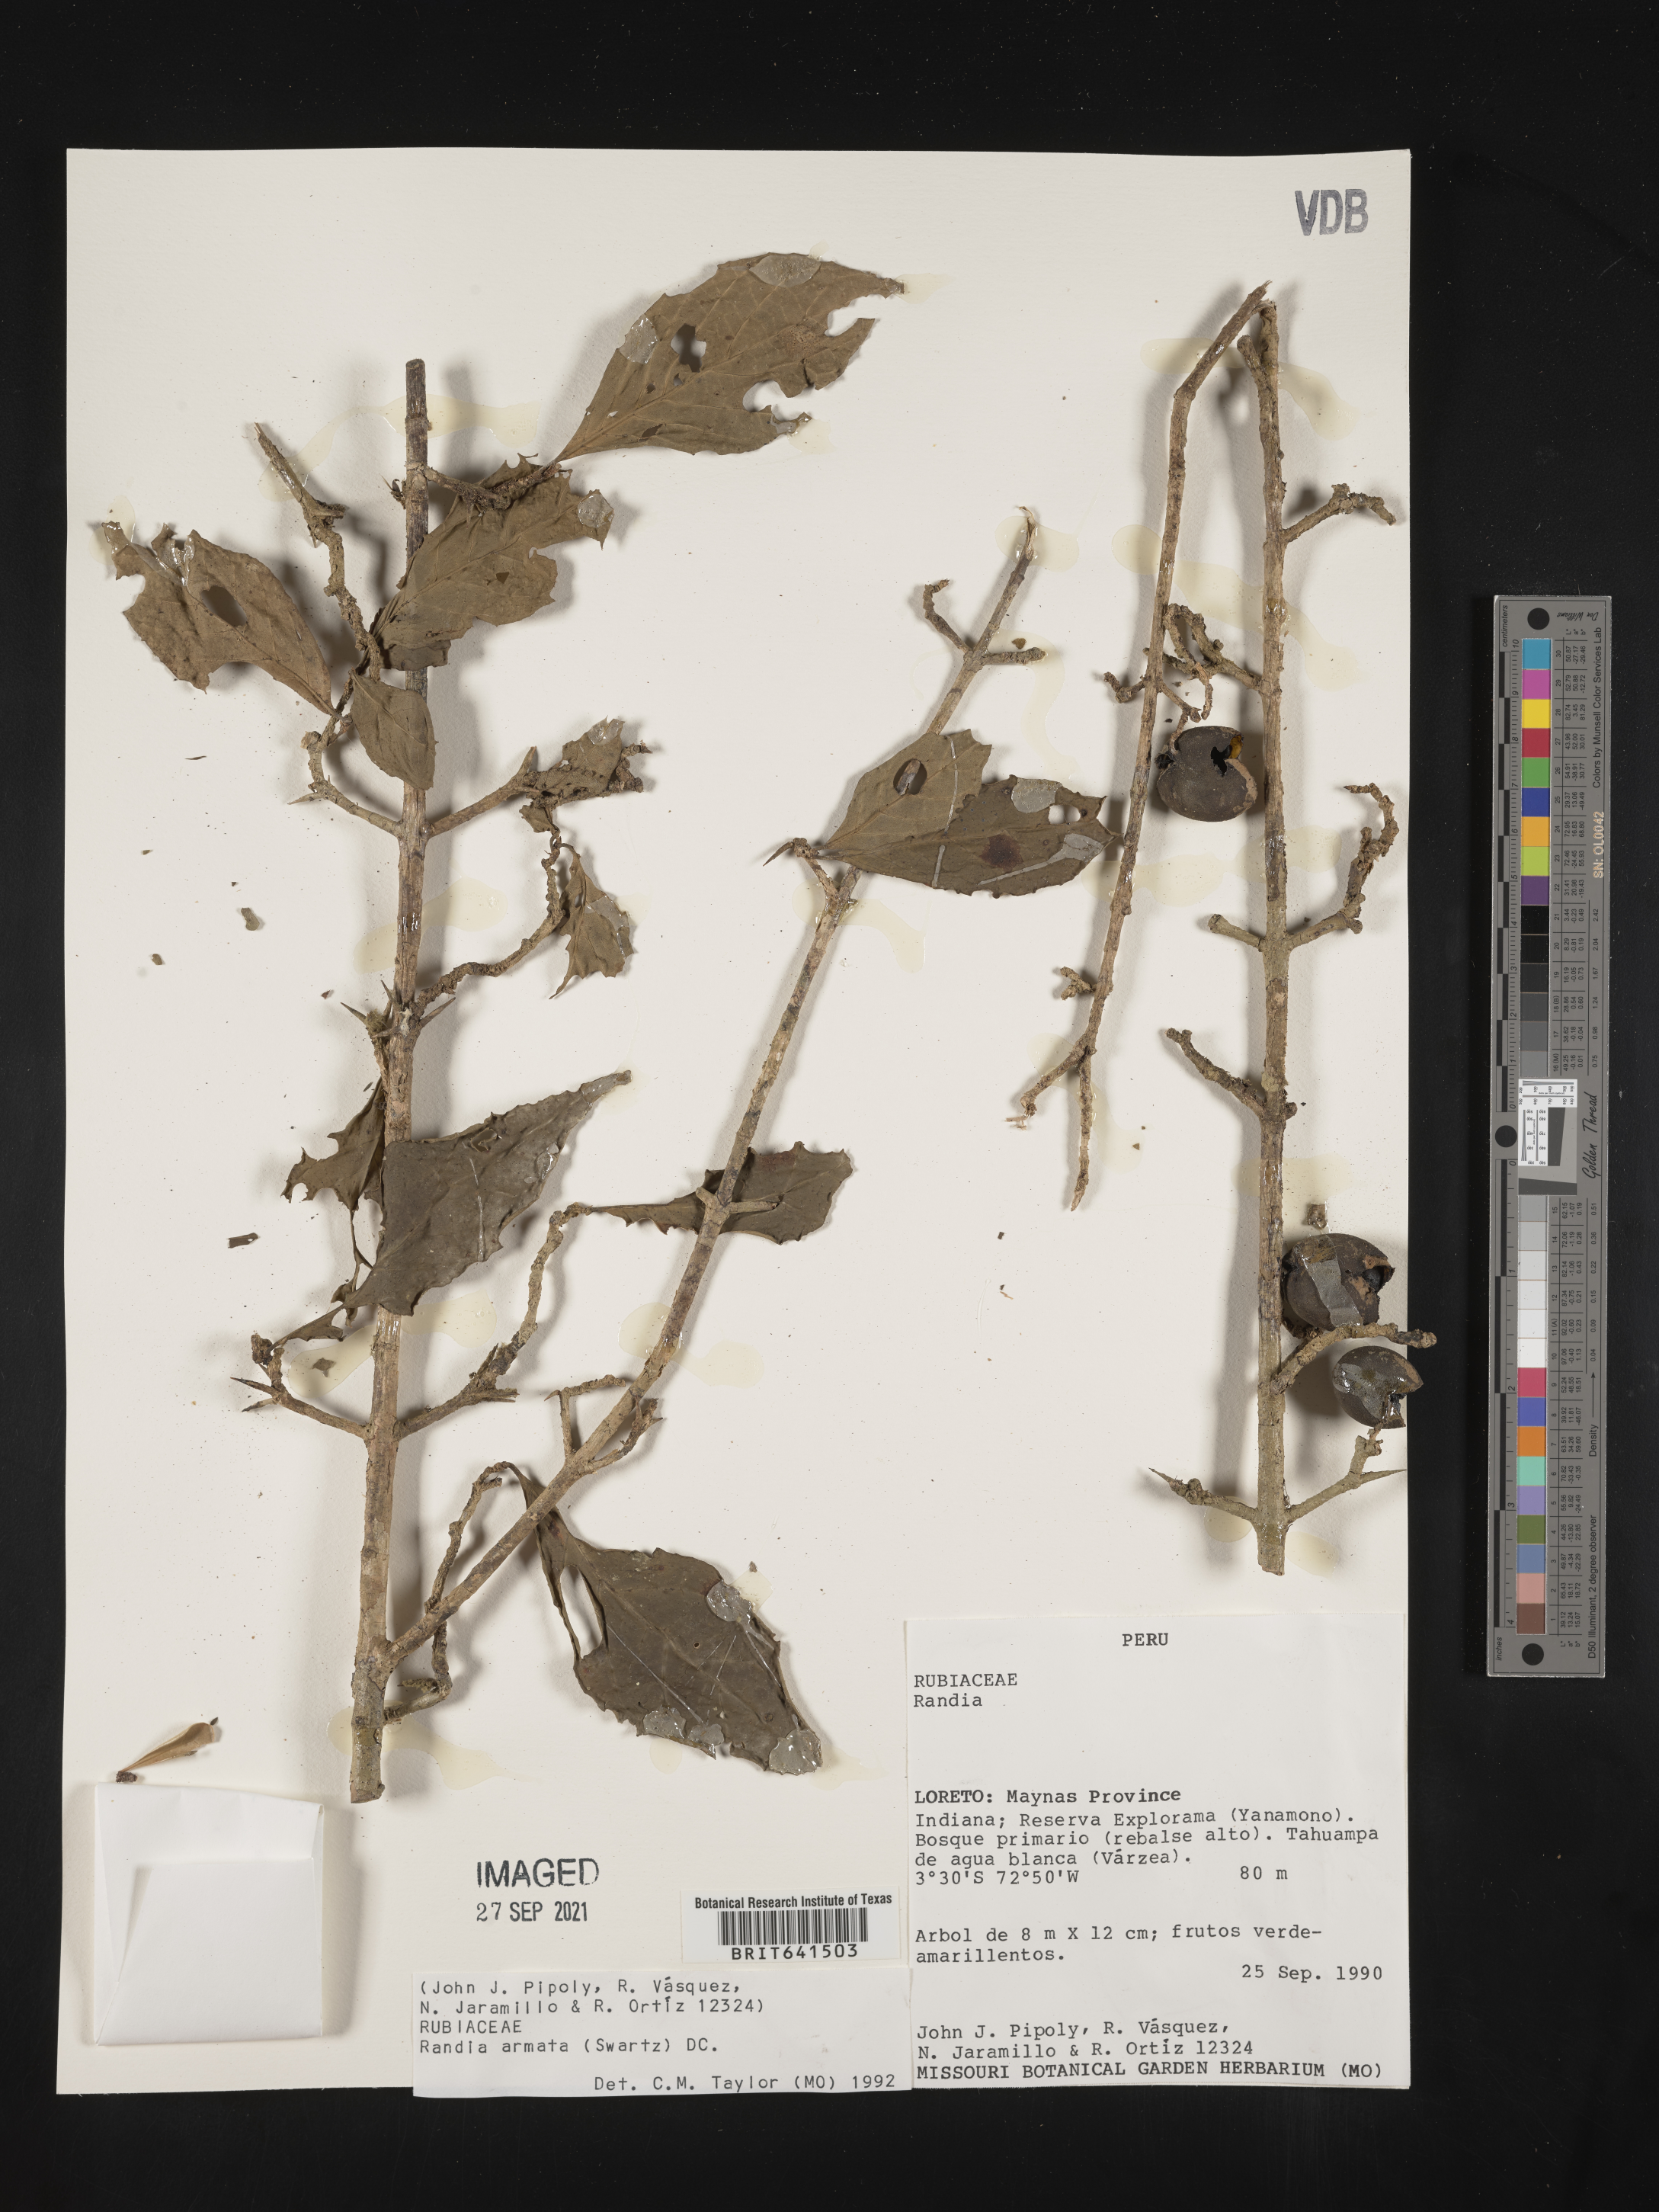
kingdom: Plantae
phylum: Tracheophyta
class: Magnoliopsida
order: Gentianales
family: Rubiaceae
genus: Randia
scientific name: Randia
